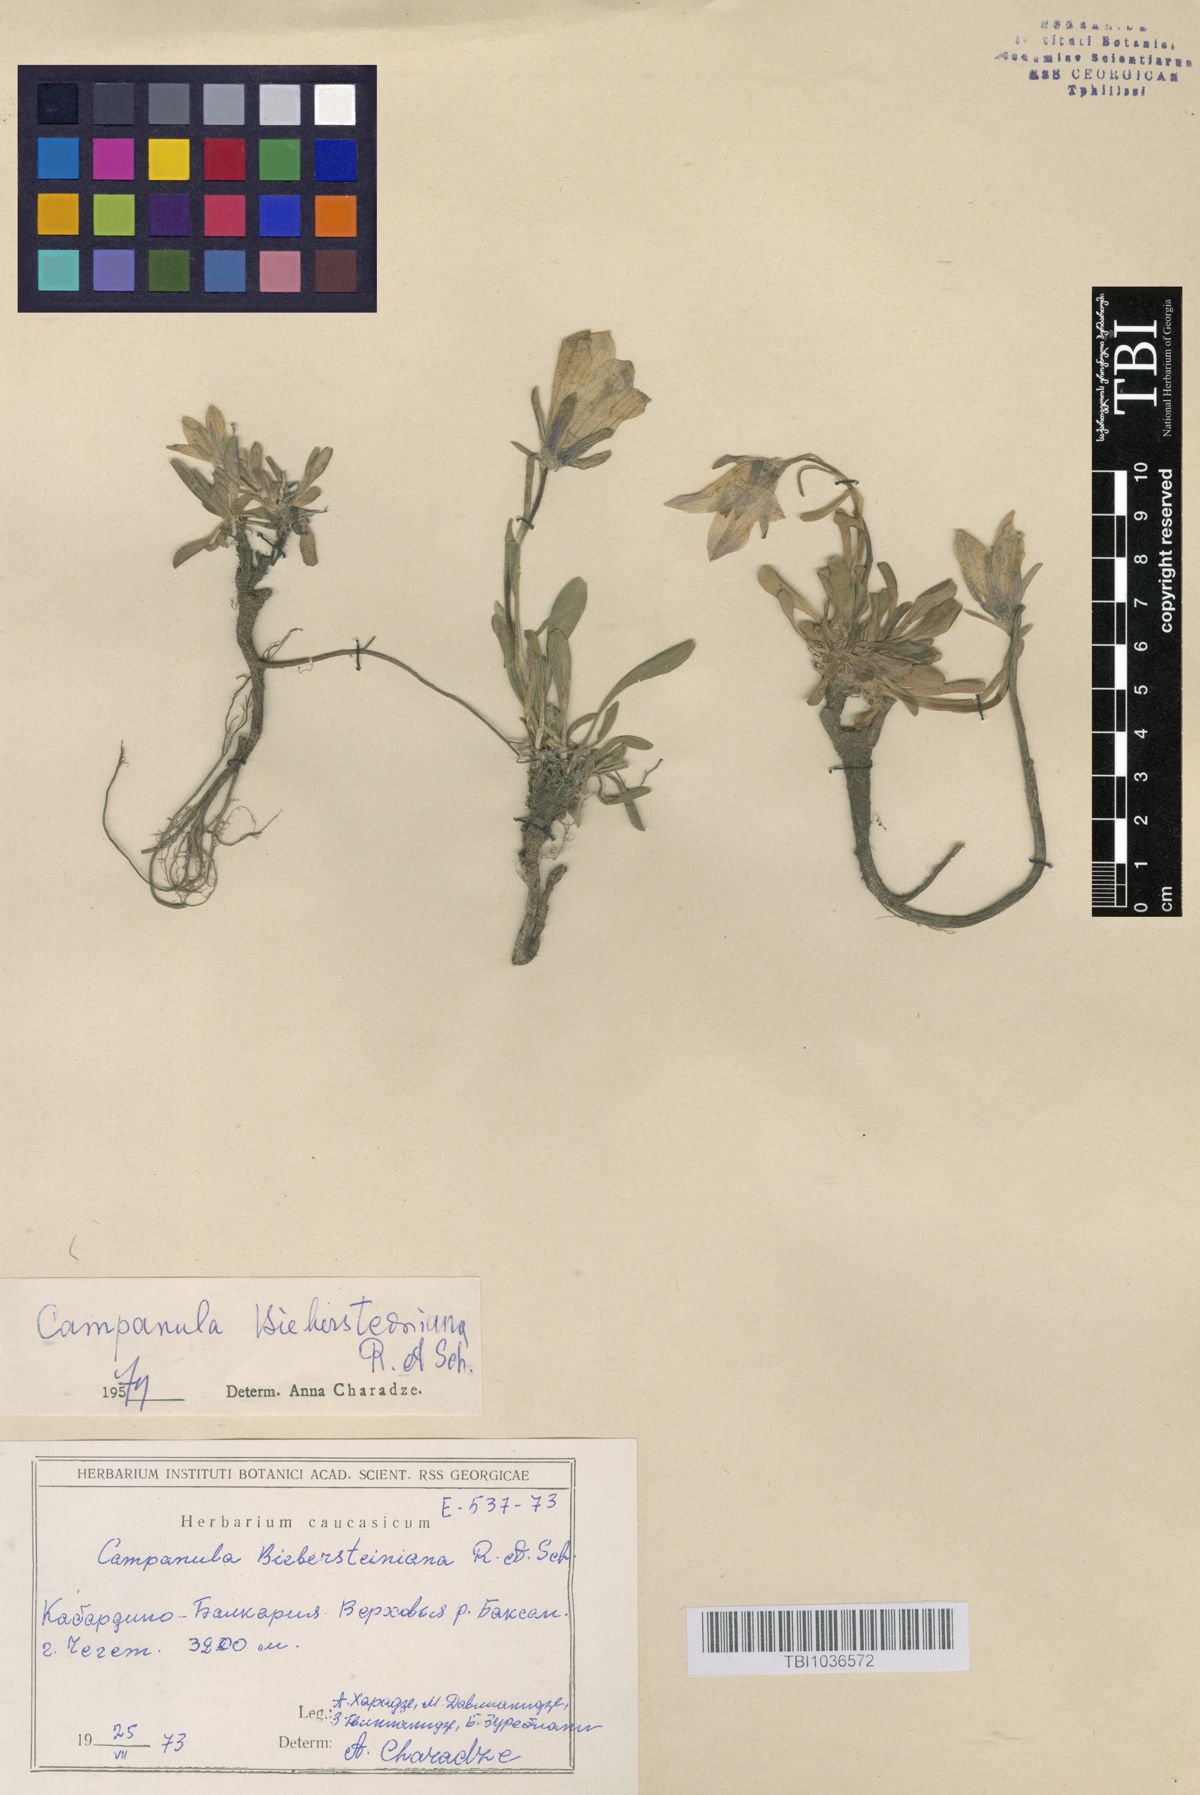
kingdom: Plantae
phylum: Tracheophyta
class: Magnoliopsida
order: Asterales
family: Campanulaceae
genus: Campanula
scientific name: Campanula tridentata
